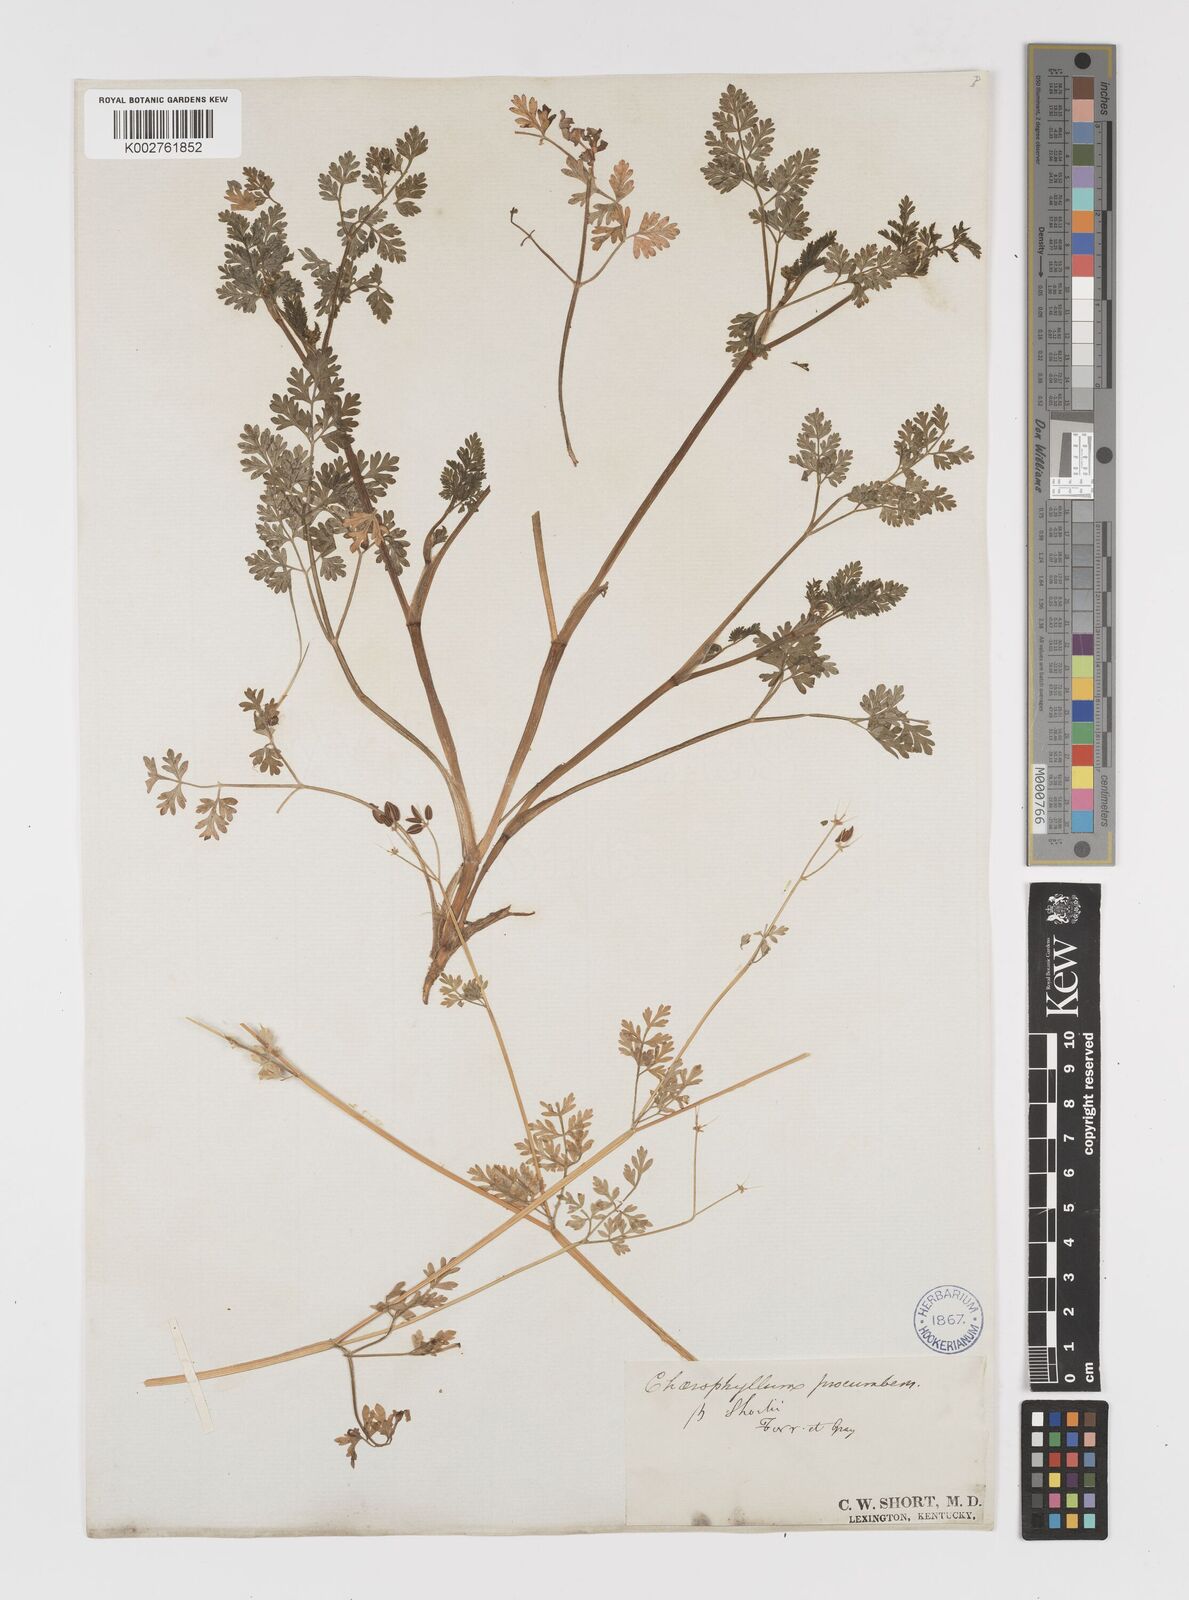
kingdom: Plantae
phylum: Tracheophyta
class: Magnoliopsida
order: Apiales
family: Apiaceae
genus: Chaerophyllum
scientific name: Chaerophyllum procumbens
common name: Spreading chervil
